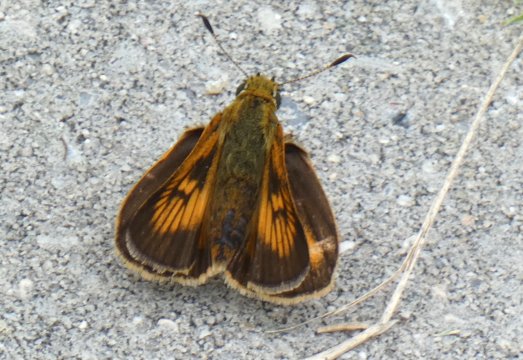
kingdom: Animalia
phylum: Arthropoda
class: Insecta
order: Lepidoptera
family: Hesperiidae
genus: Atrytone
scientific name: Atrytone delaware
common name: Delaware Skipper
